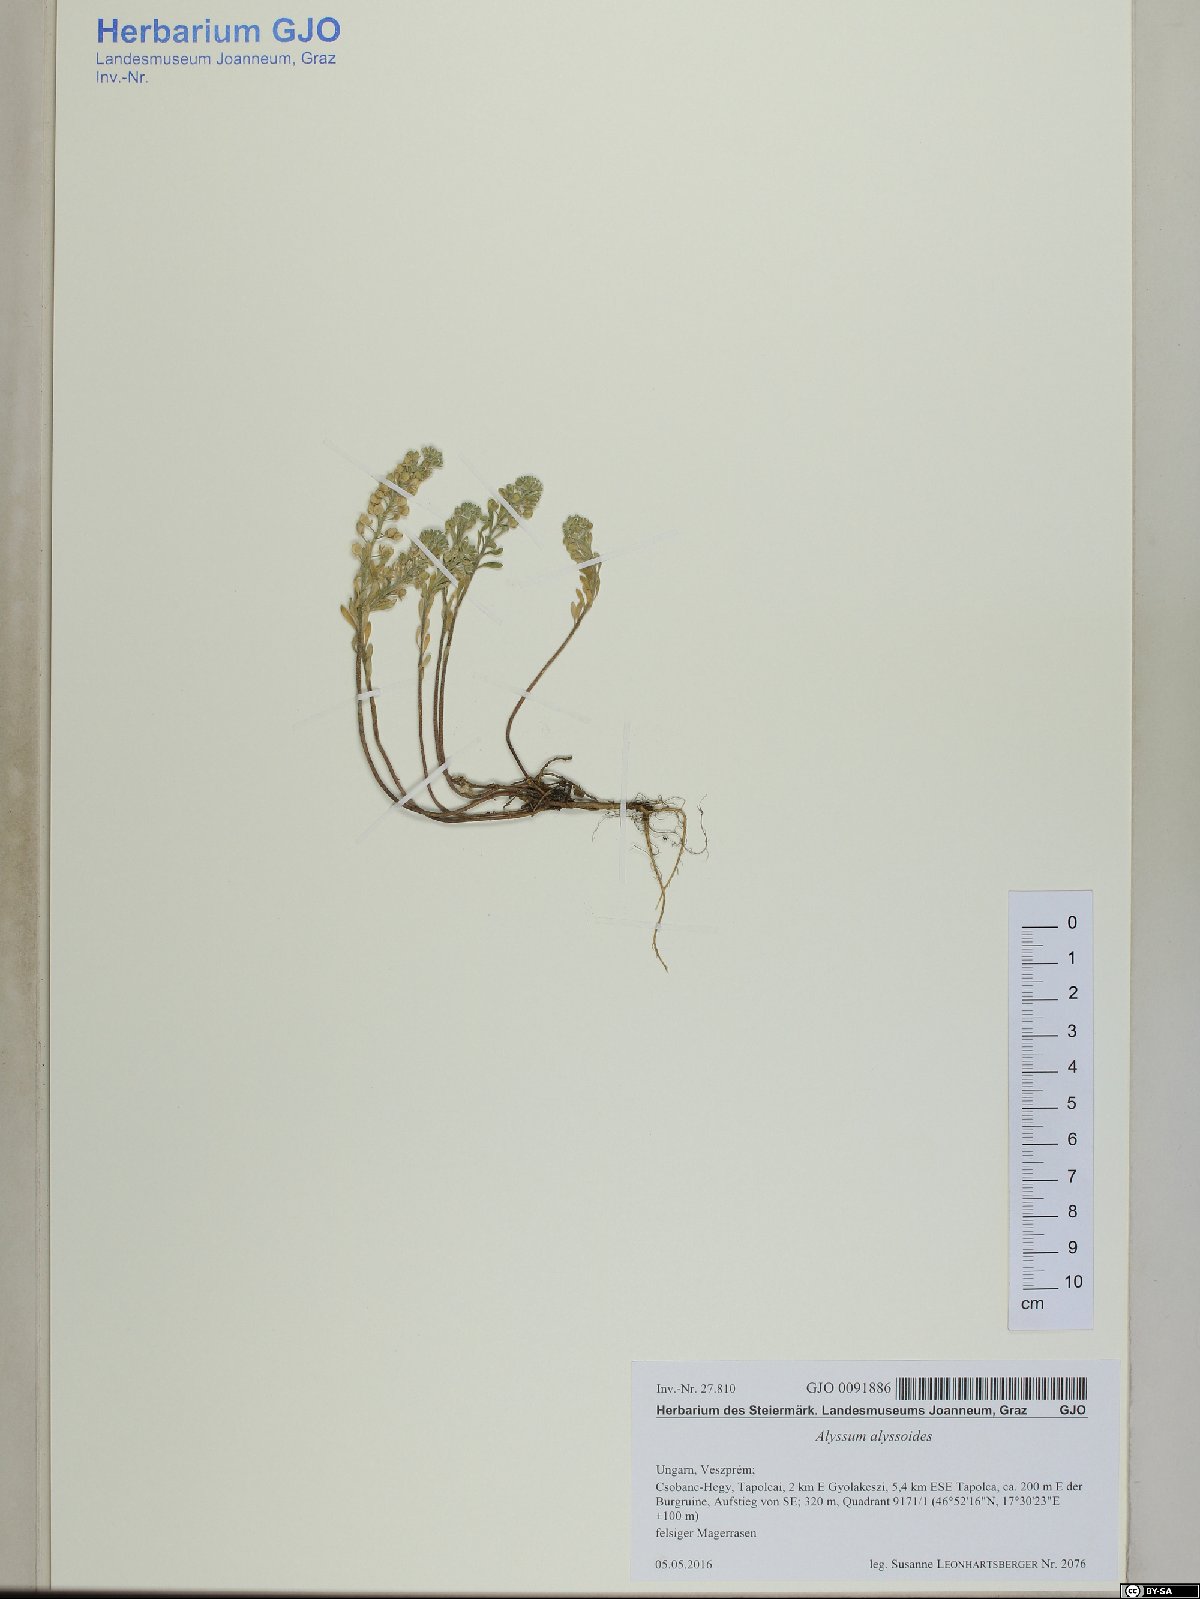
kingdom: Plantae
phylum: Tracheophyta
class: Magnoliopsida
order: Brassicales
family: Brassicaceae
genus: Alyssum
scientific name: Alyssum alyssoides
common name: Small alison
